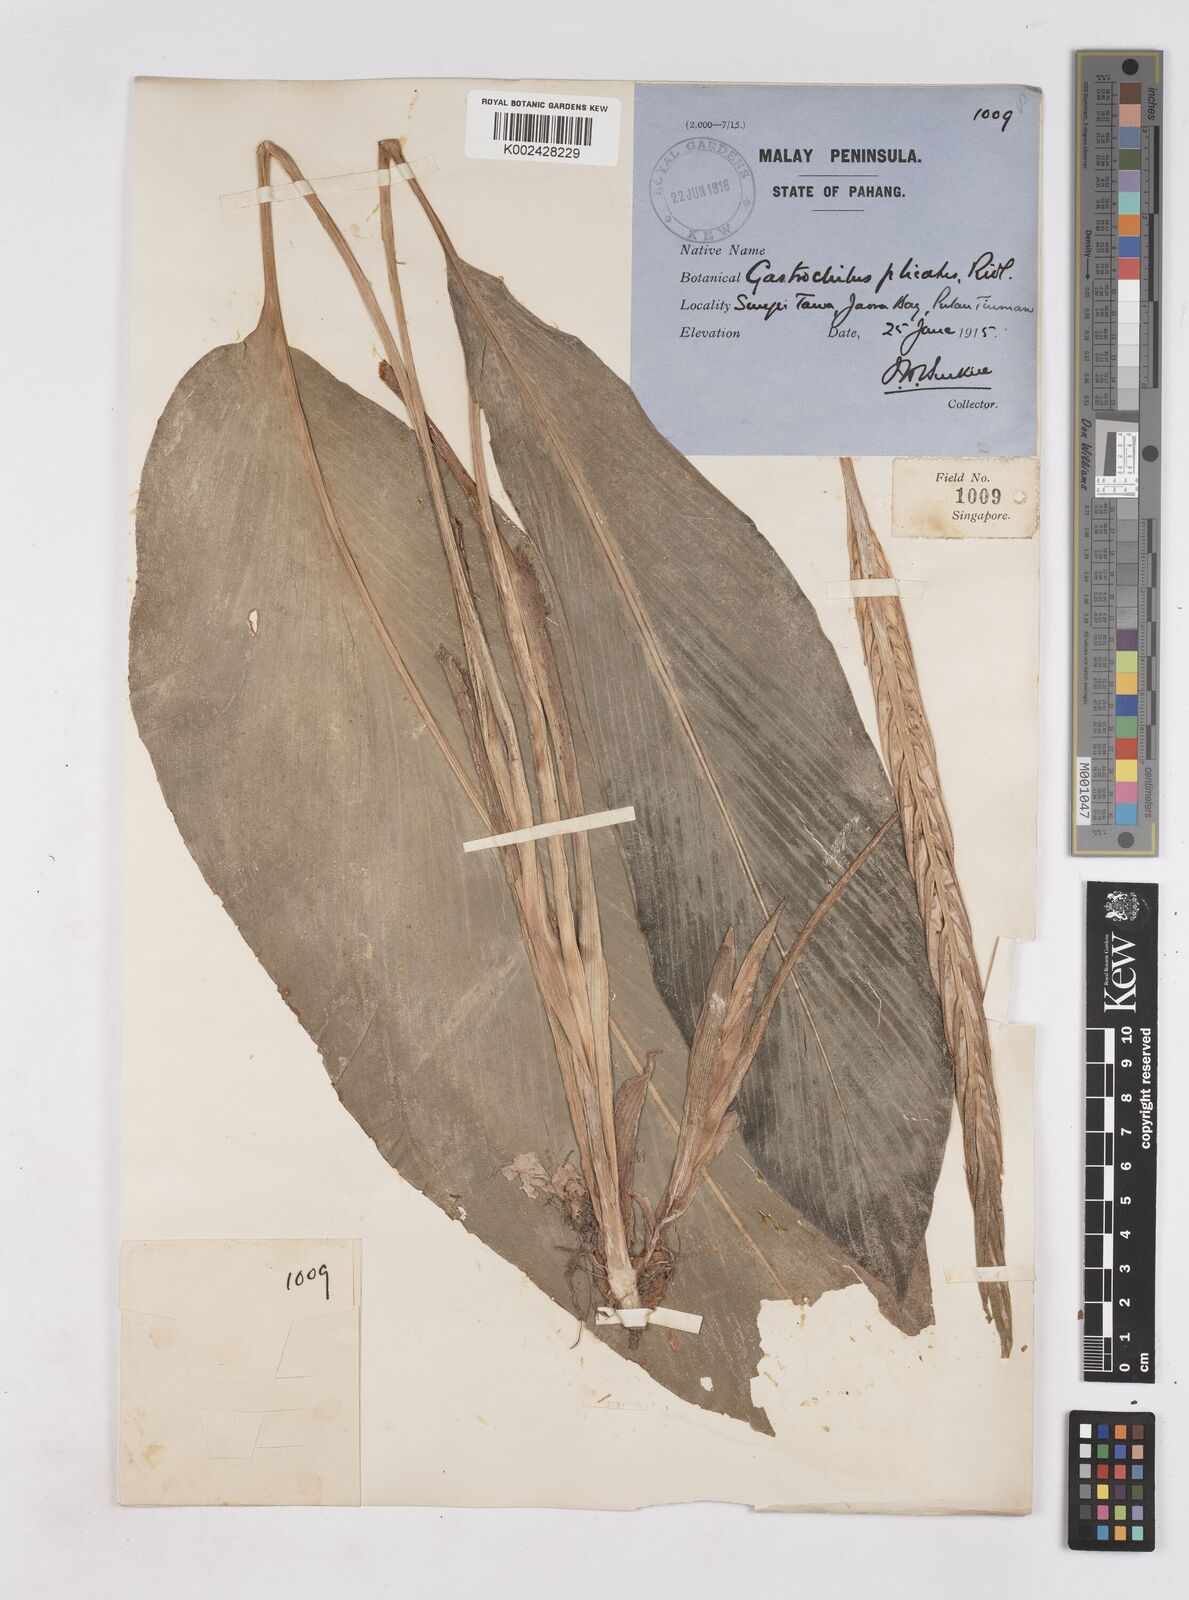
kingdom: Plantae
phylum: Tracheophyta
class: Liliopsida
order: Zingiberales
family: Zingiberaceae
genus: Boesenbergia
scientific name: Boesenbergia plicata
